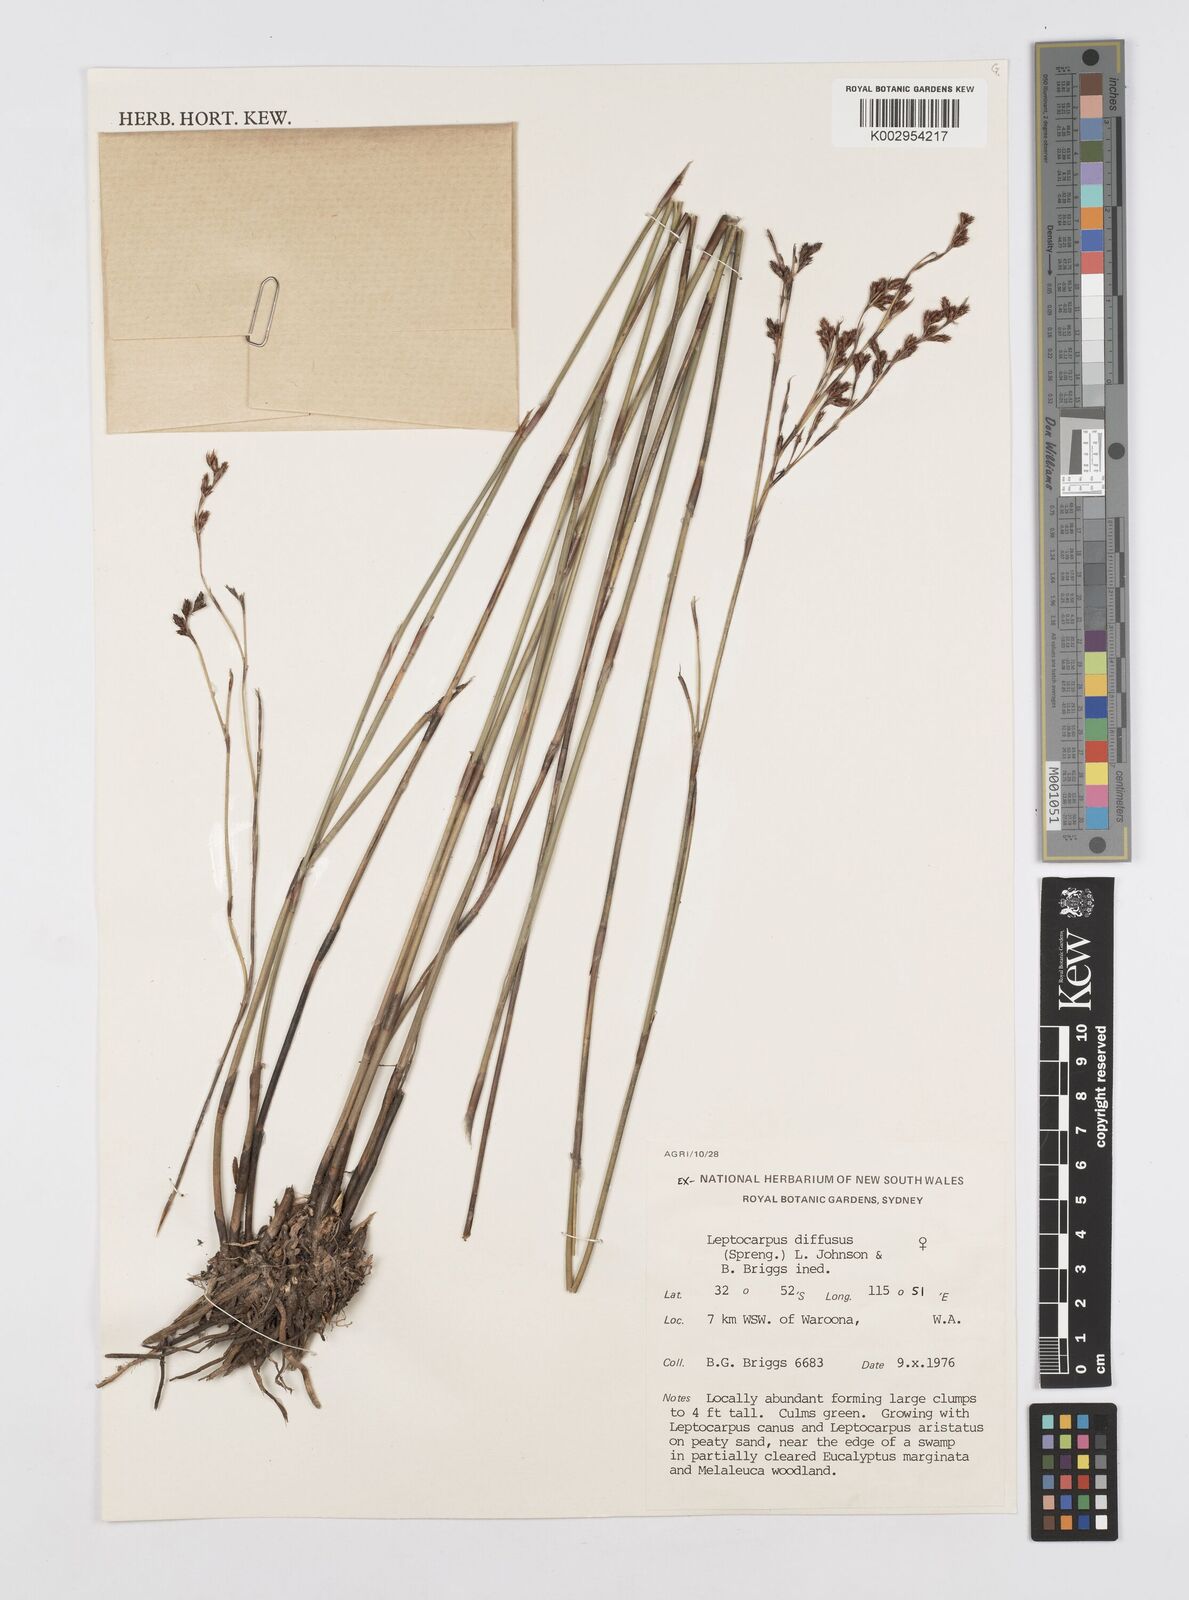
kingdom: Plantae
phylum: Tracheophyta
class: Liliopsida
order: Poales
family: Restionaceae
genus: Leptocarpus
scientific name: Leptocarpus laxus
